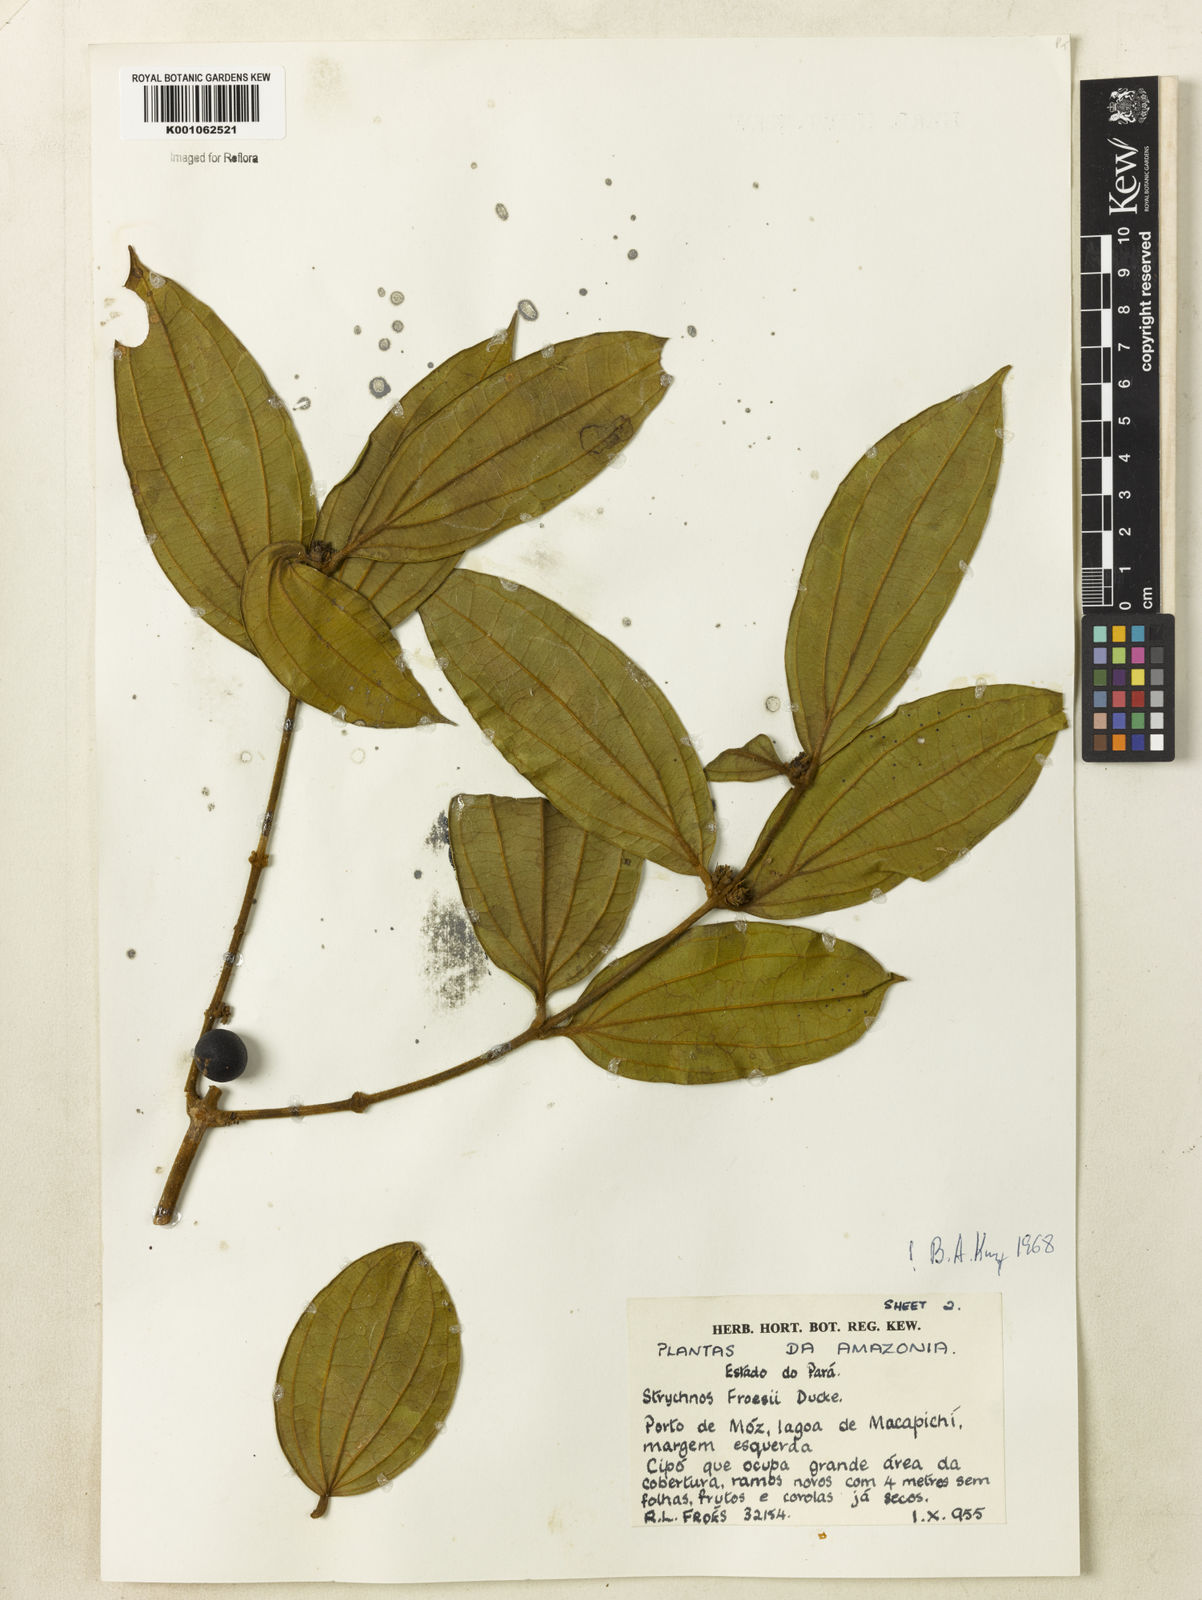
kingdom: Plantae
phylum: Tracheophyta
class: Magnoliopsida
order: Gentianales
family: Loganiaceae
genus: Strychnos
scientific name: Strychnos froesii
